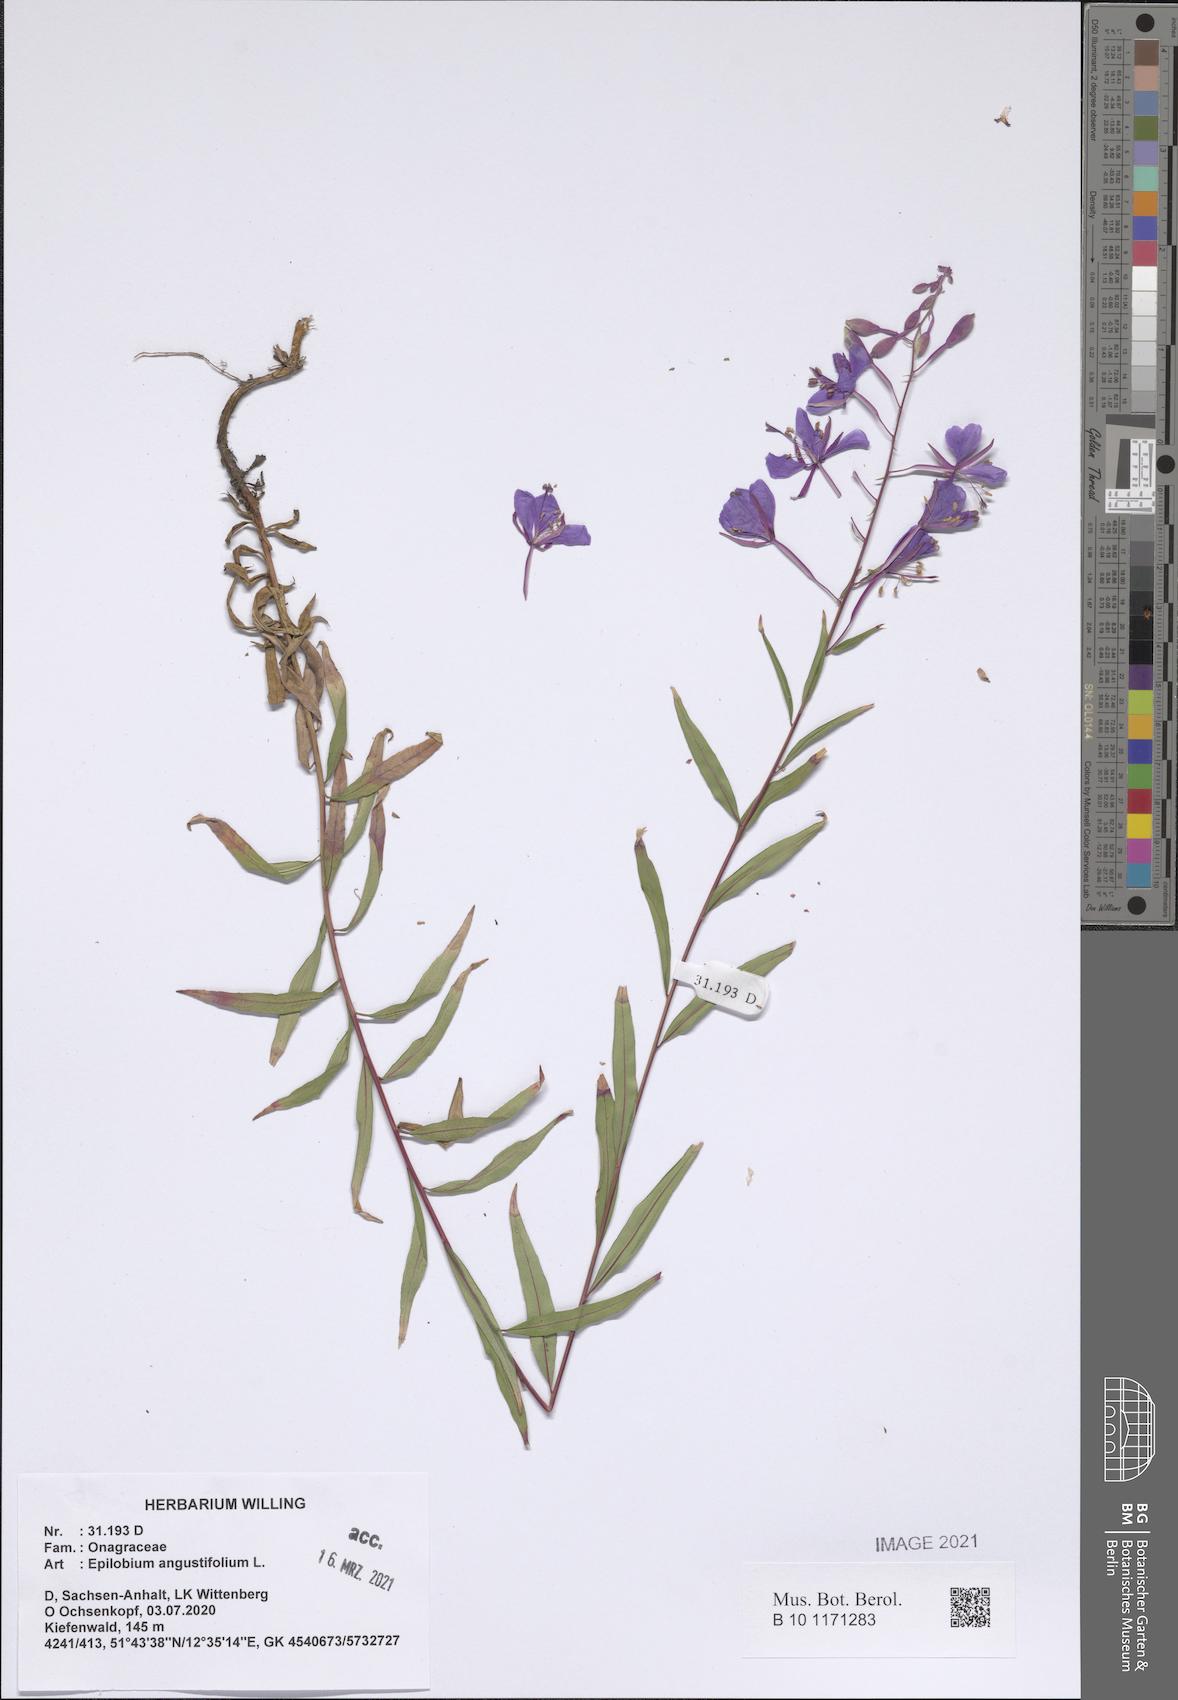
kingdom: Plantae
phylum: Tracheophyta
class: Magnoliopsida
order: Myrtales
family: Onagraceae
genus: Chamaenerion
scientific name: Chamaenerion angustifolium
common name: Fireweed
